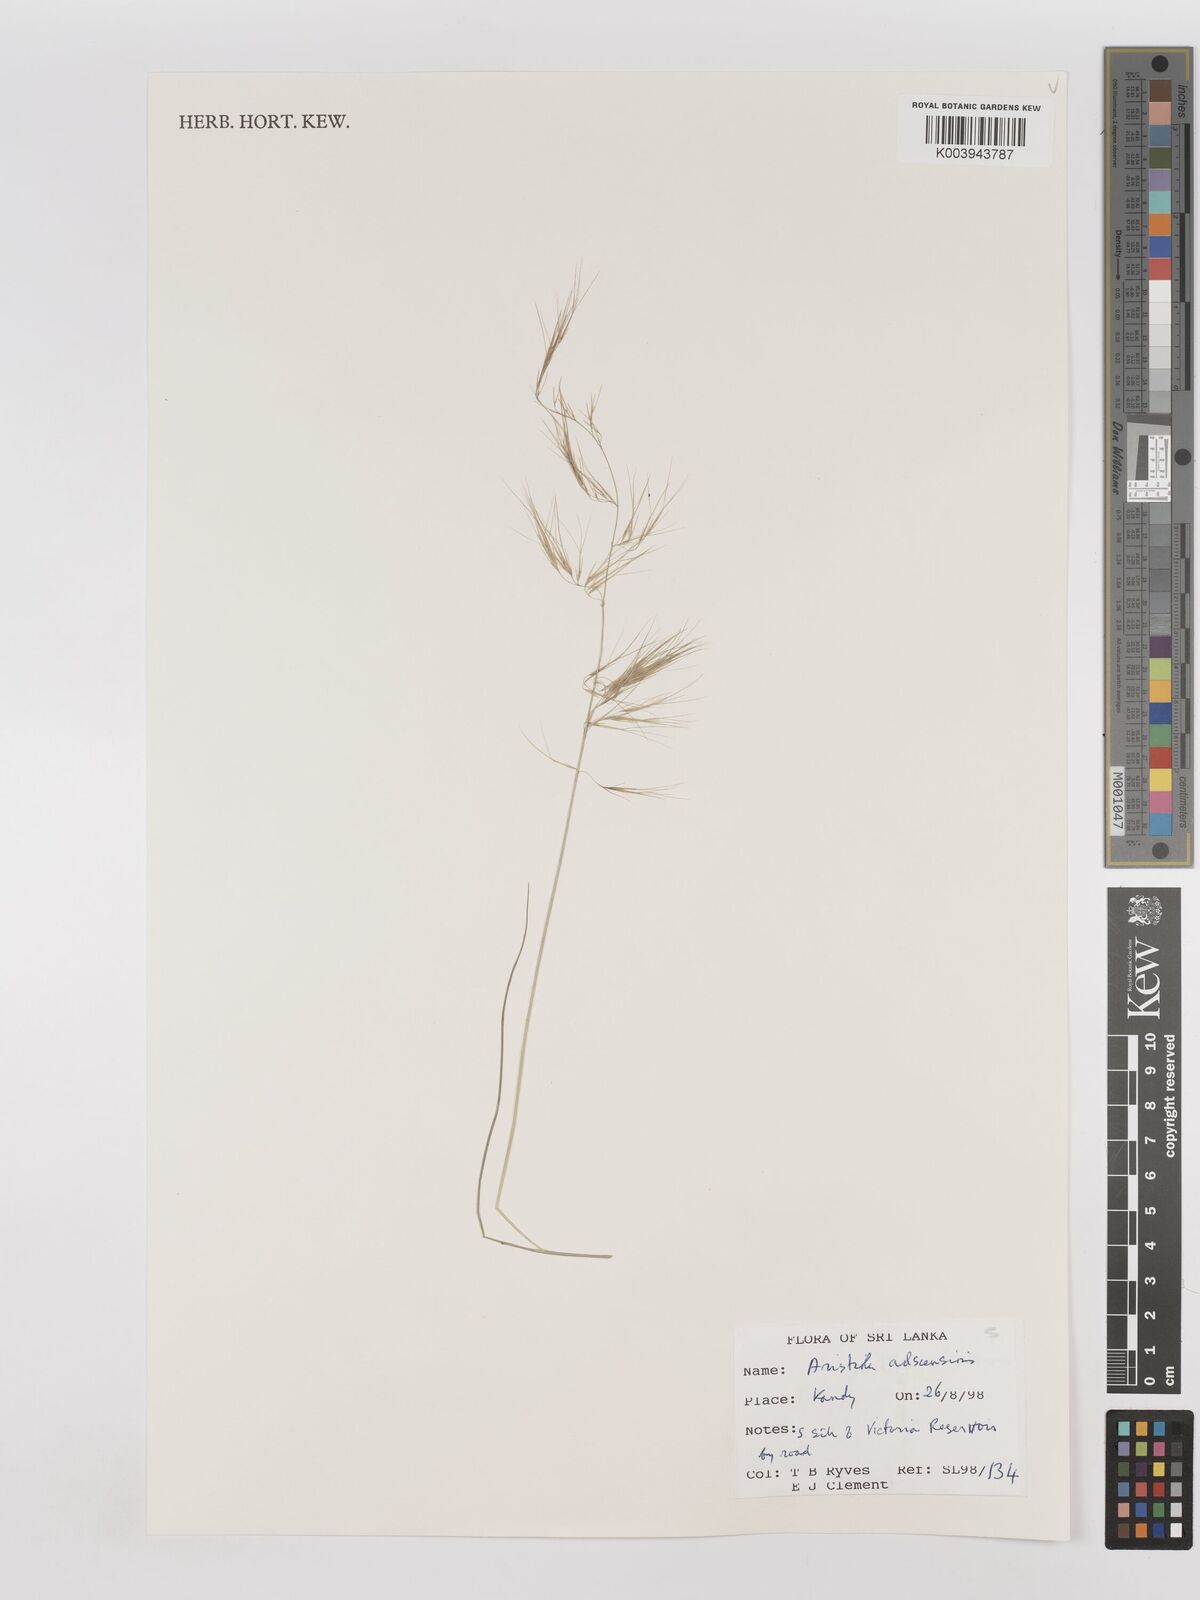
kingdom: Plantae
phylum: Tracheophyta
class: Liliopsida
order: Poales
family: Poaceae
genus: Aristida
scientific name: Aristida adscensionis
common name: Sixweeks threeawn
